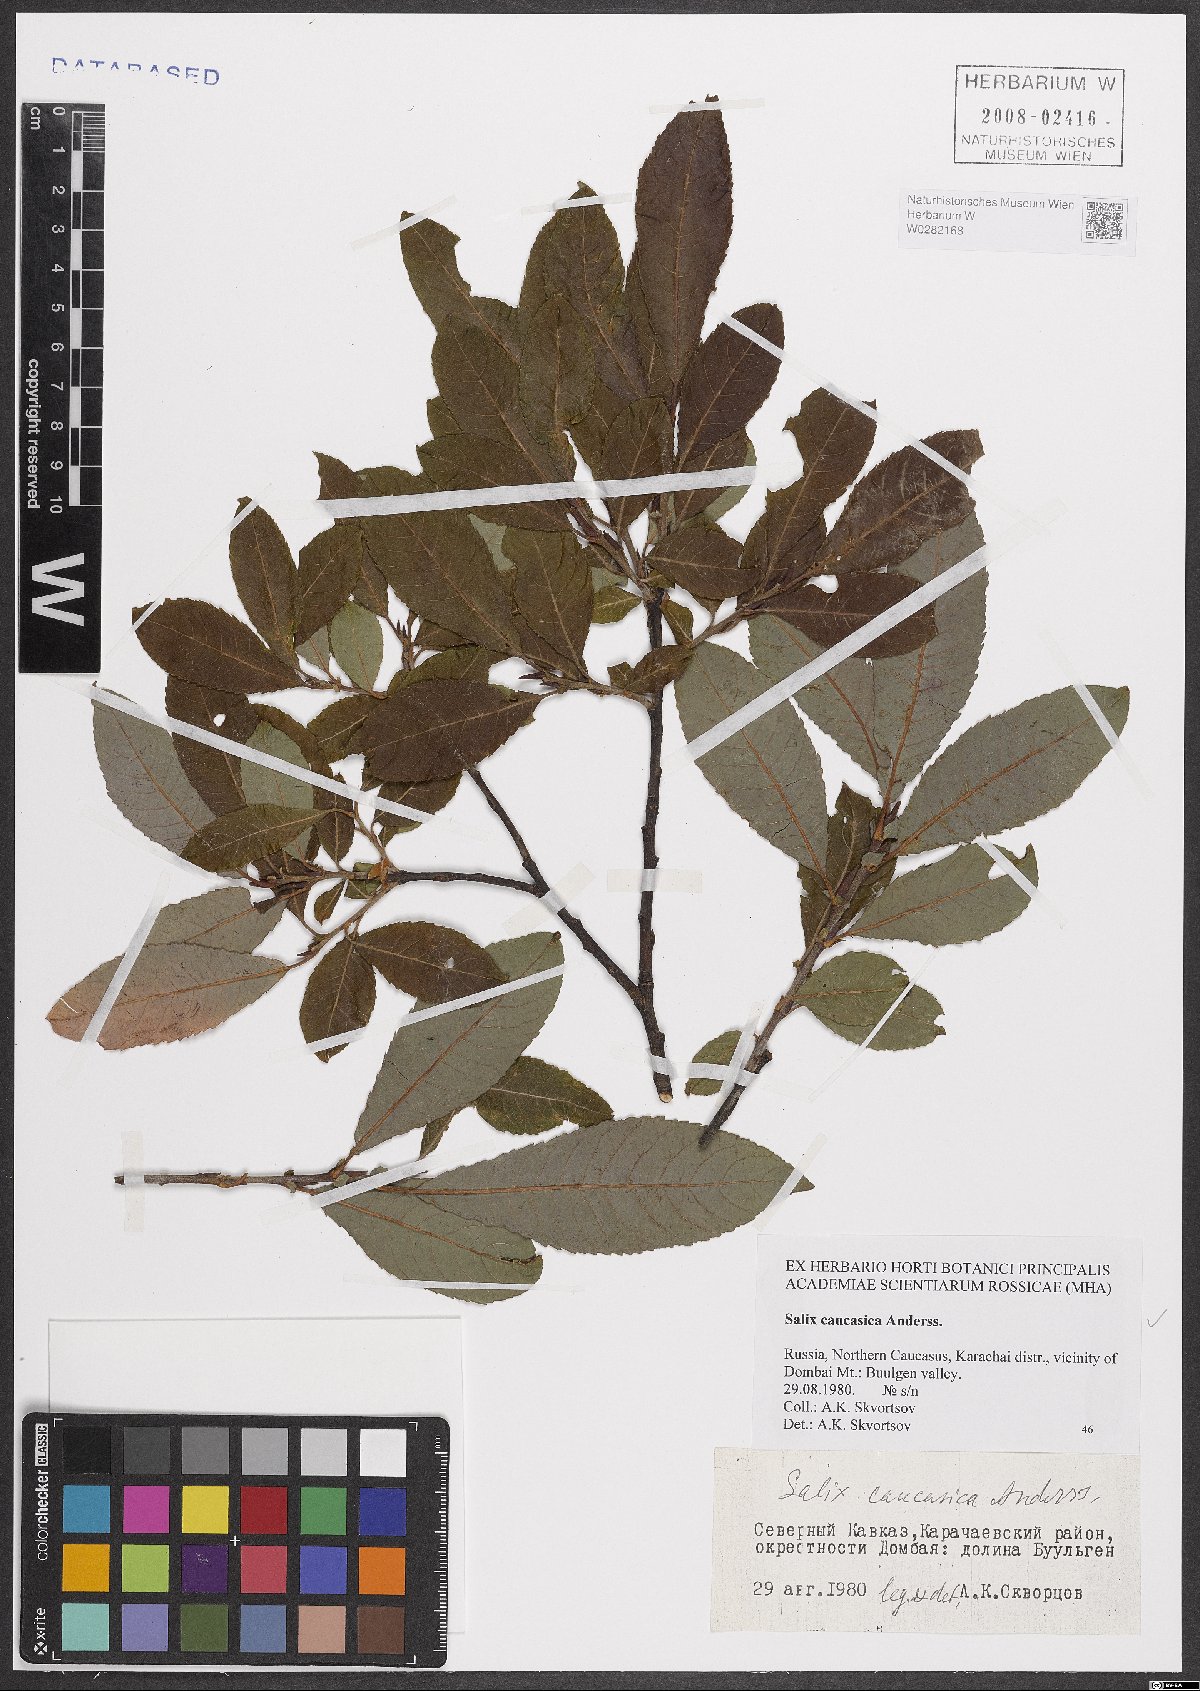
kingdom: Plantae
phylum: Tracheophyta
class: Magnoliopsida
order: Malpighiales
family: Salicaceae
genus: Salix
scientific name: Salix caucasica
